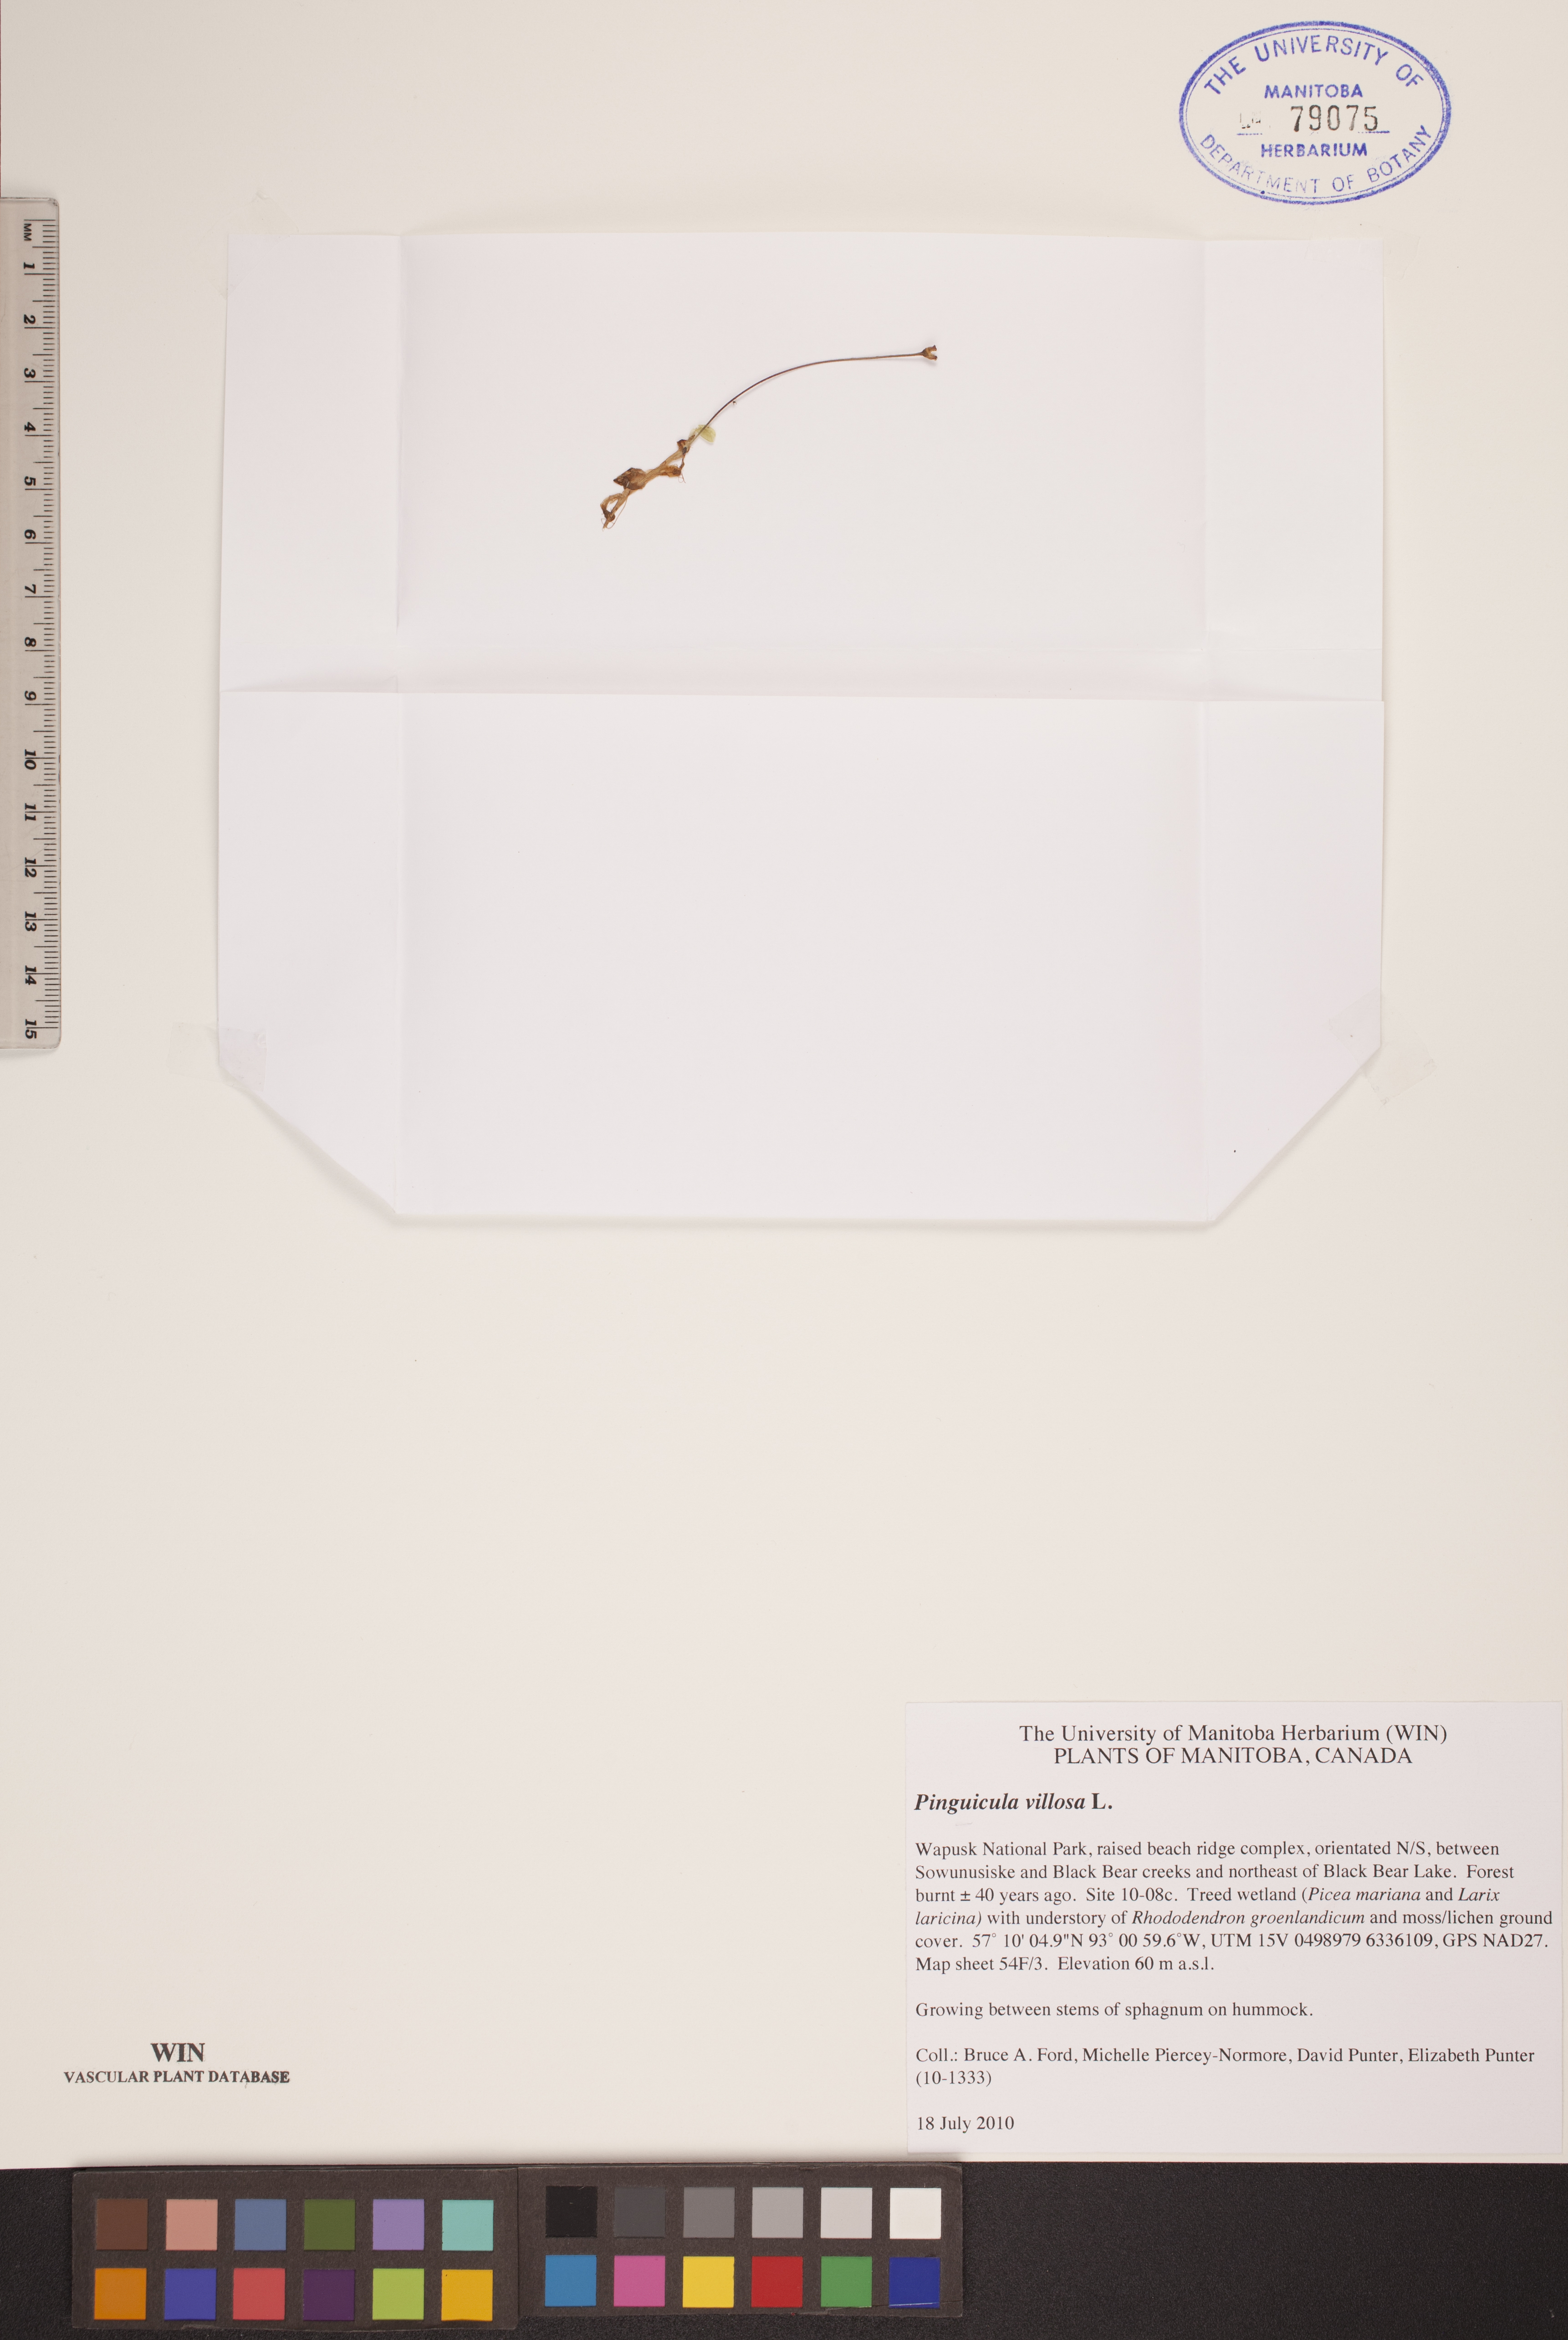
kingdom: Plantae
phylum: Tracheophyta
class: Magnoliopsida
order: Lamiales
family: Lentibulariaceae
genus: Pinguicula
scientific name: Pinguicula villosa
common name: Hairy butterwort
